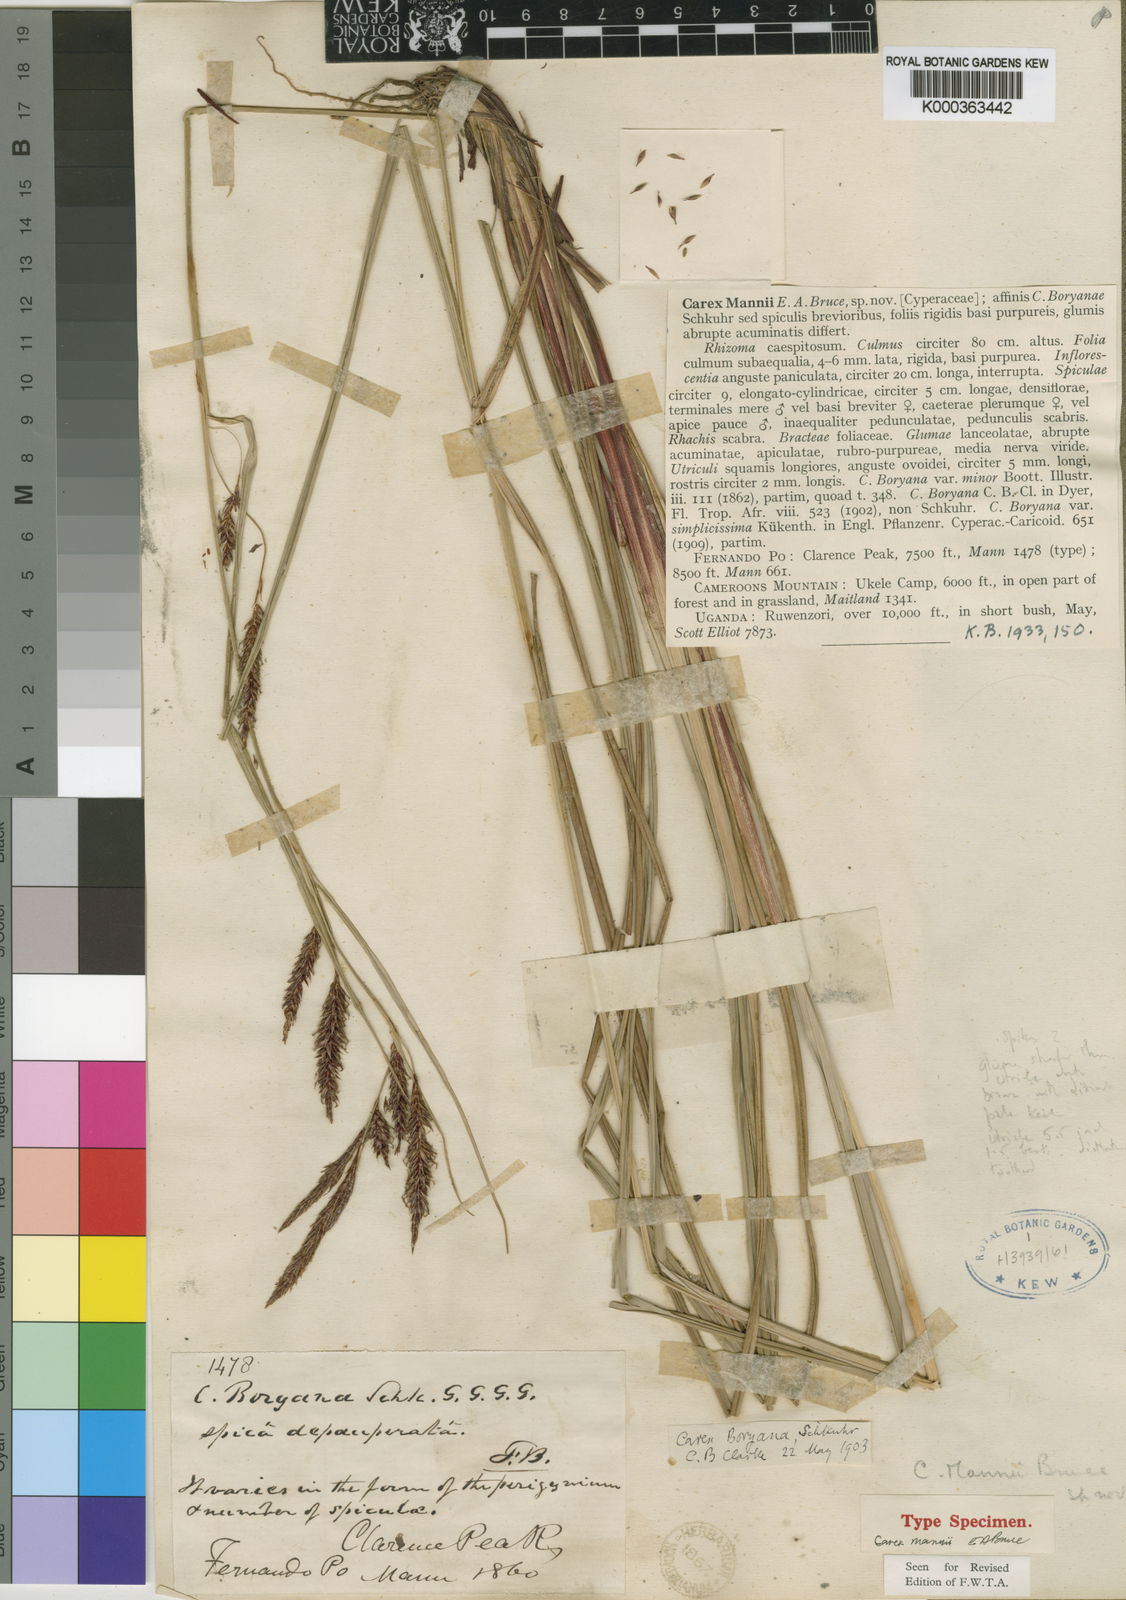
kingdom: Plantae
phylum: Tracheophyta
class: Liliopsida
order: Poales
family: Cyperaceae
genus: Carex
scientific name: Carex mannii
